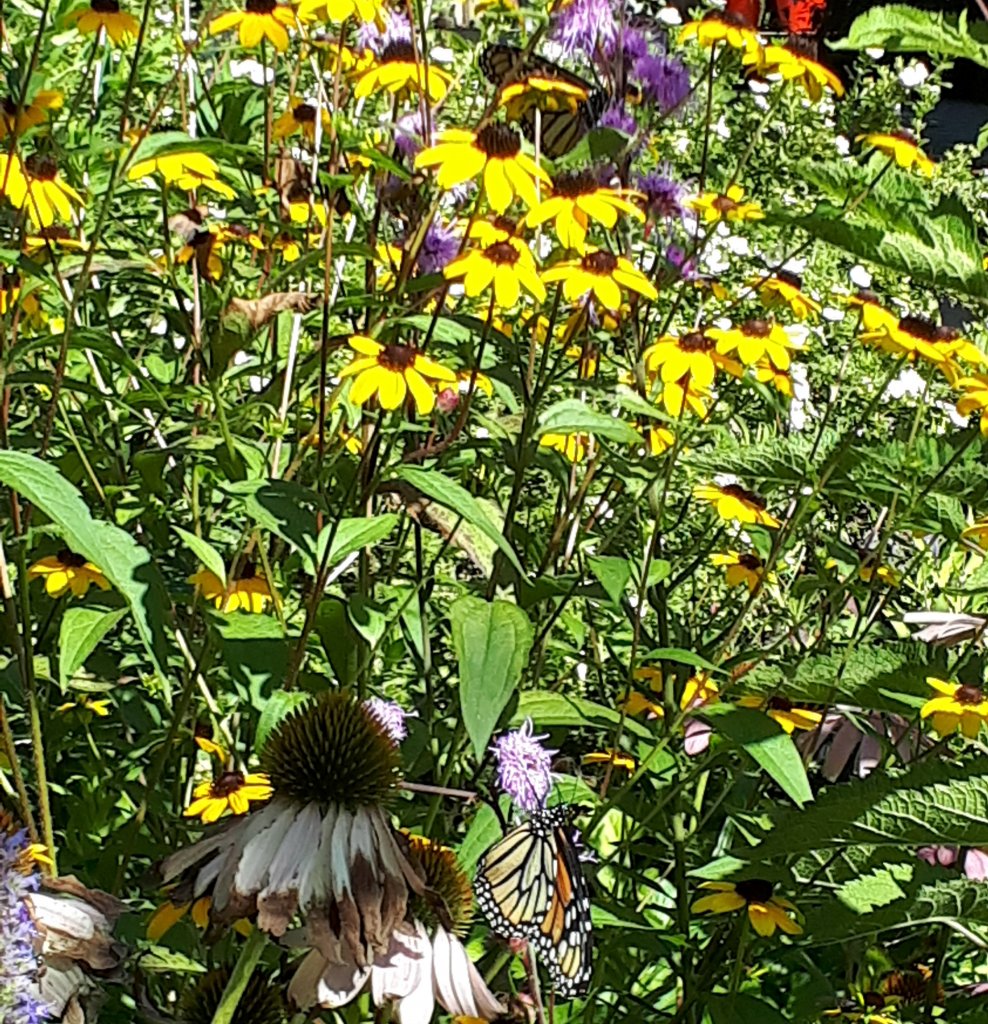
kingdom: Animalia
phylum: Arthropoda
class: Insecta
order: Lepidoptera
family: Nymphalidae
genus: Danaus
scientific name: Danaus plexippus
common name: Monarch
